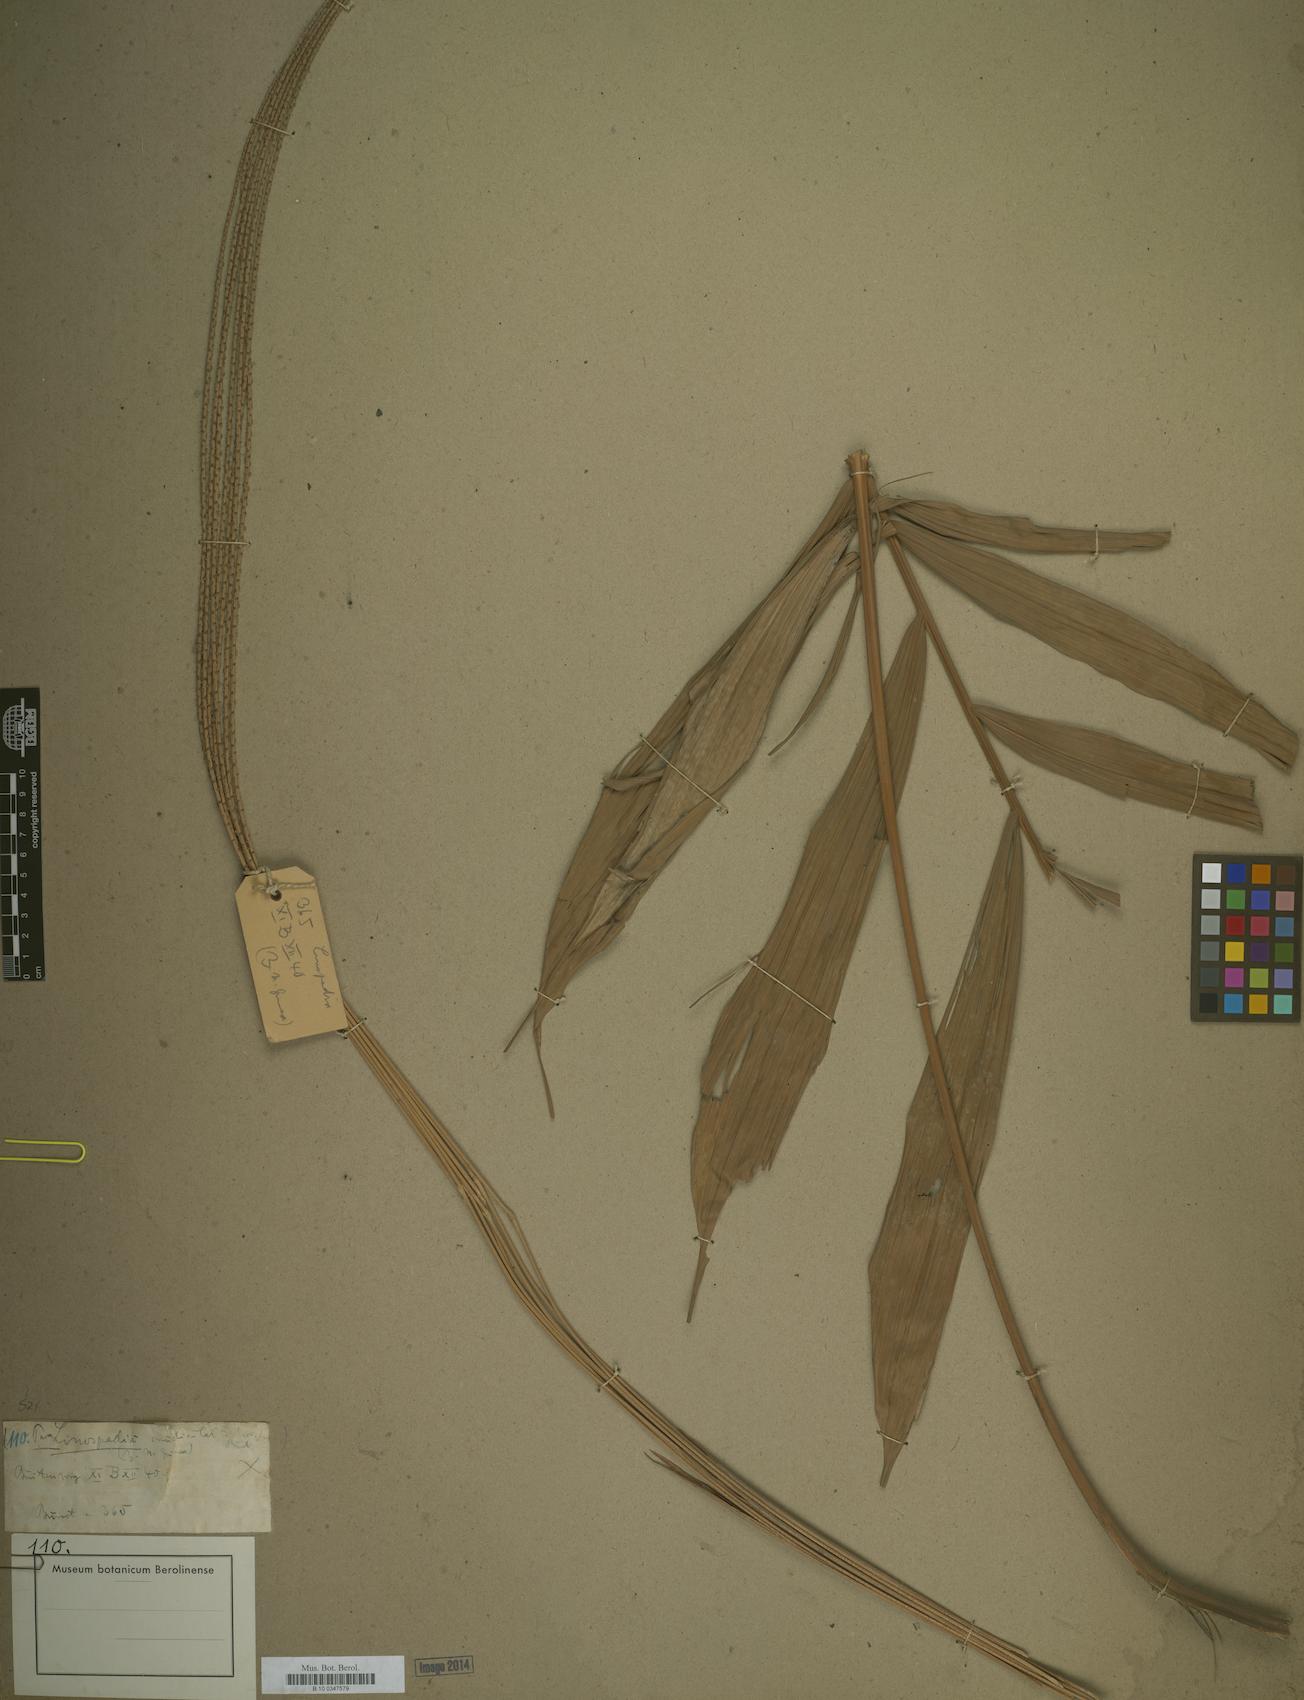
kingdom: Plantae
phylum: Tracheophyta
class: Liliopsida
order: Arecales
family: Arecaceae
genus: Calyptrocalyx
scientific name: Calyptrocalyx
